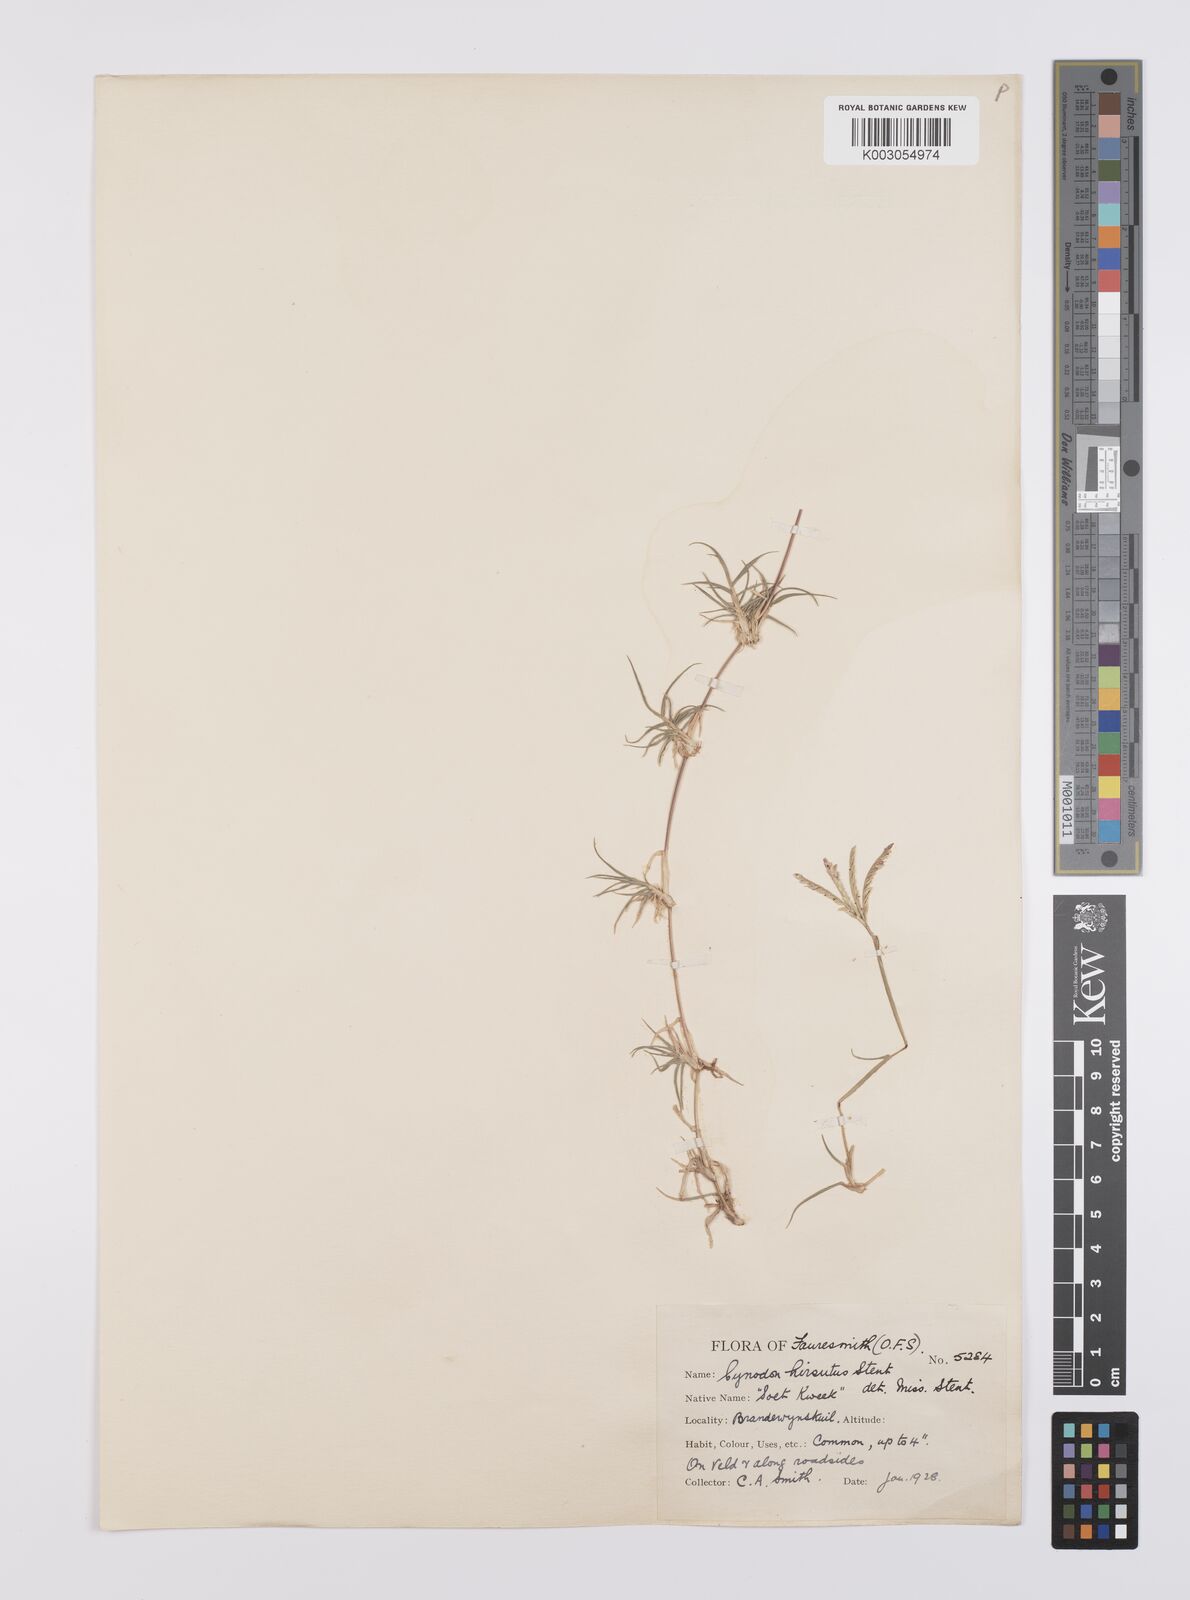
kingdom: Plantae
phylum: Tracheophyta
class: Liliopsida
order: Poales
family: Poaceae
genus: Cynodon
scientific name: Cynodon incompletus
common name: African bermuda-grass
